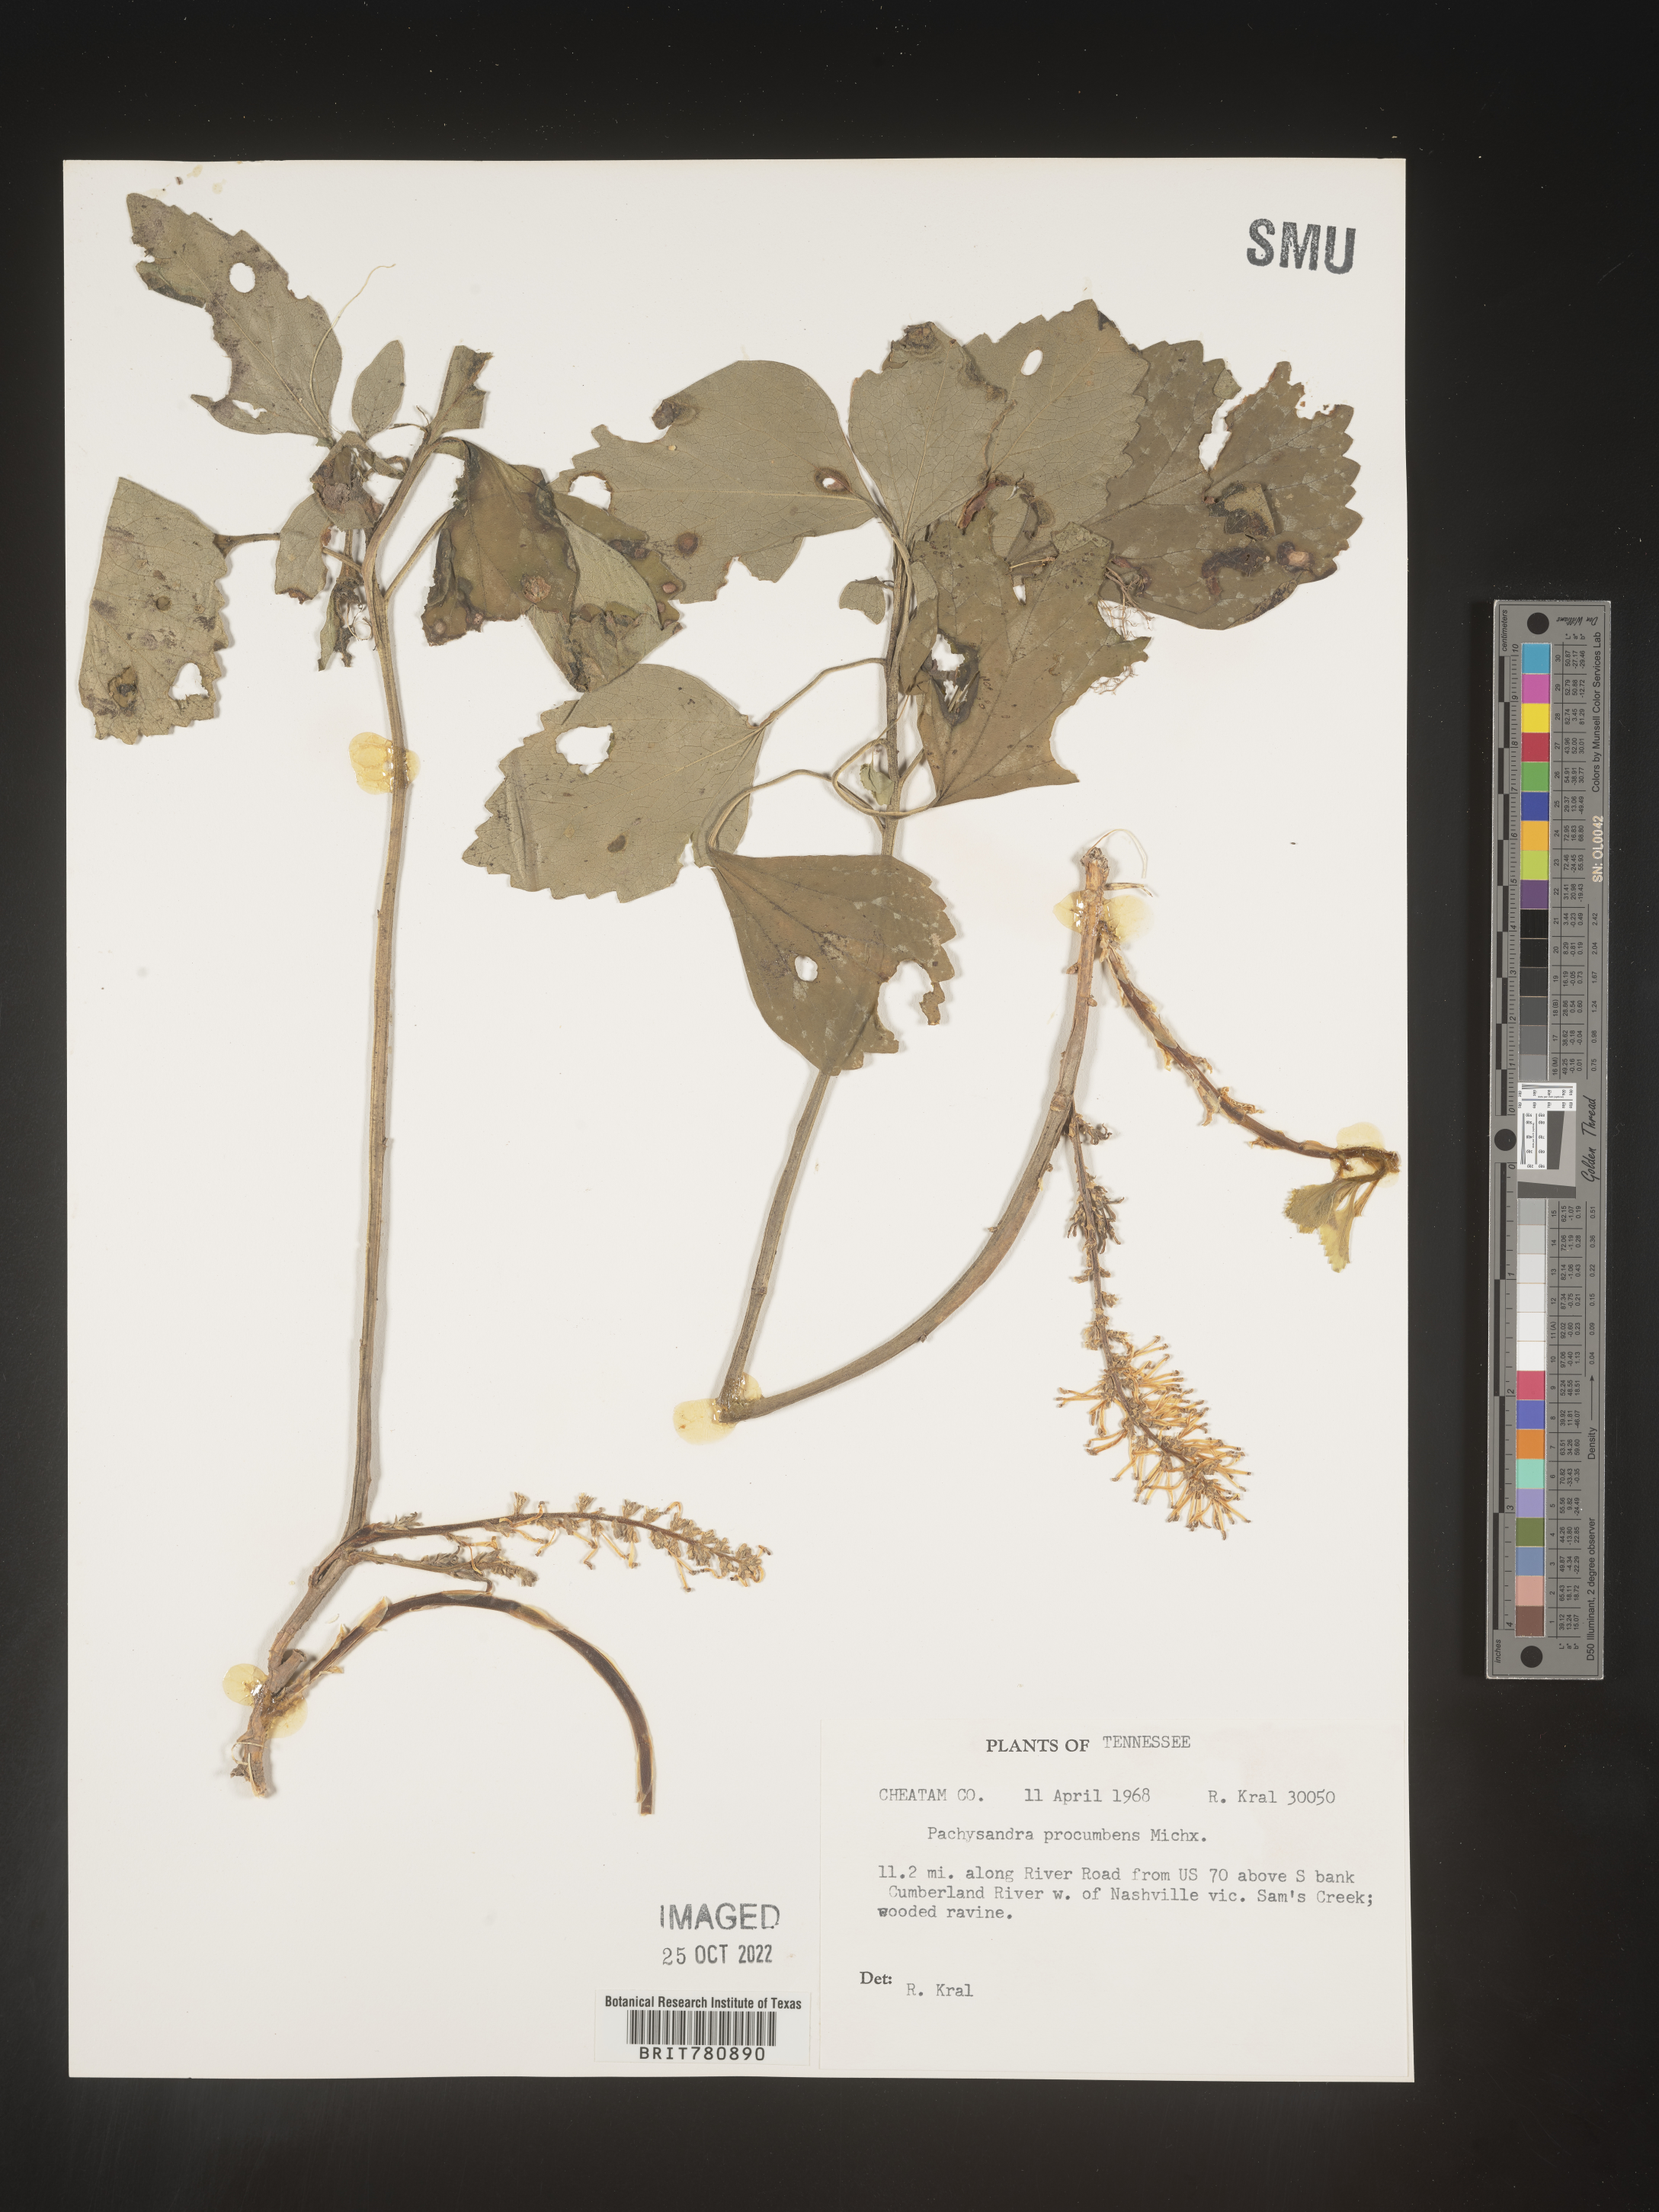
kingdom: Plantae
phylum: Tracheophyta
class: Magnoliopsida
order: Buxales
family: Buxaceae
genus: Pachysandra
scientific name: Pachysandra
